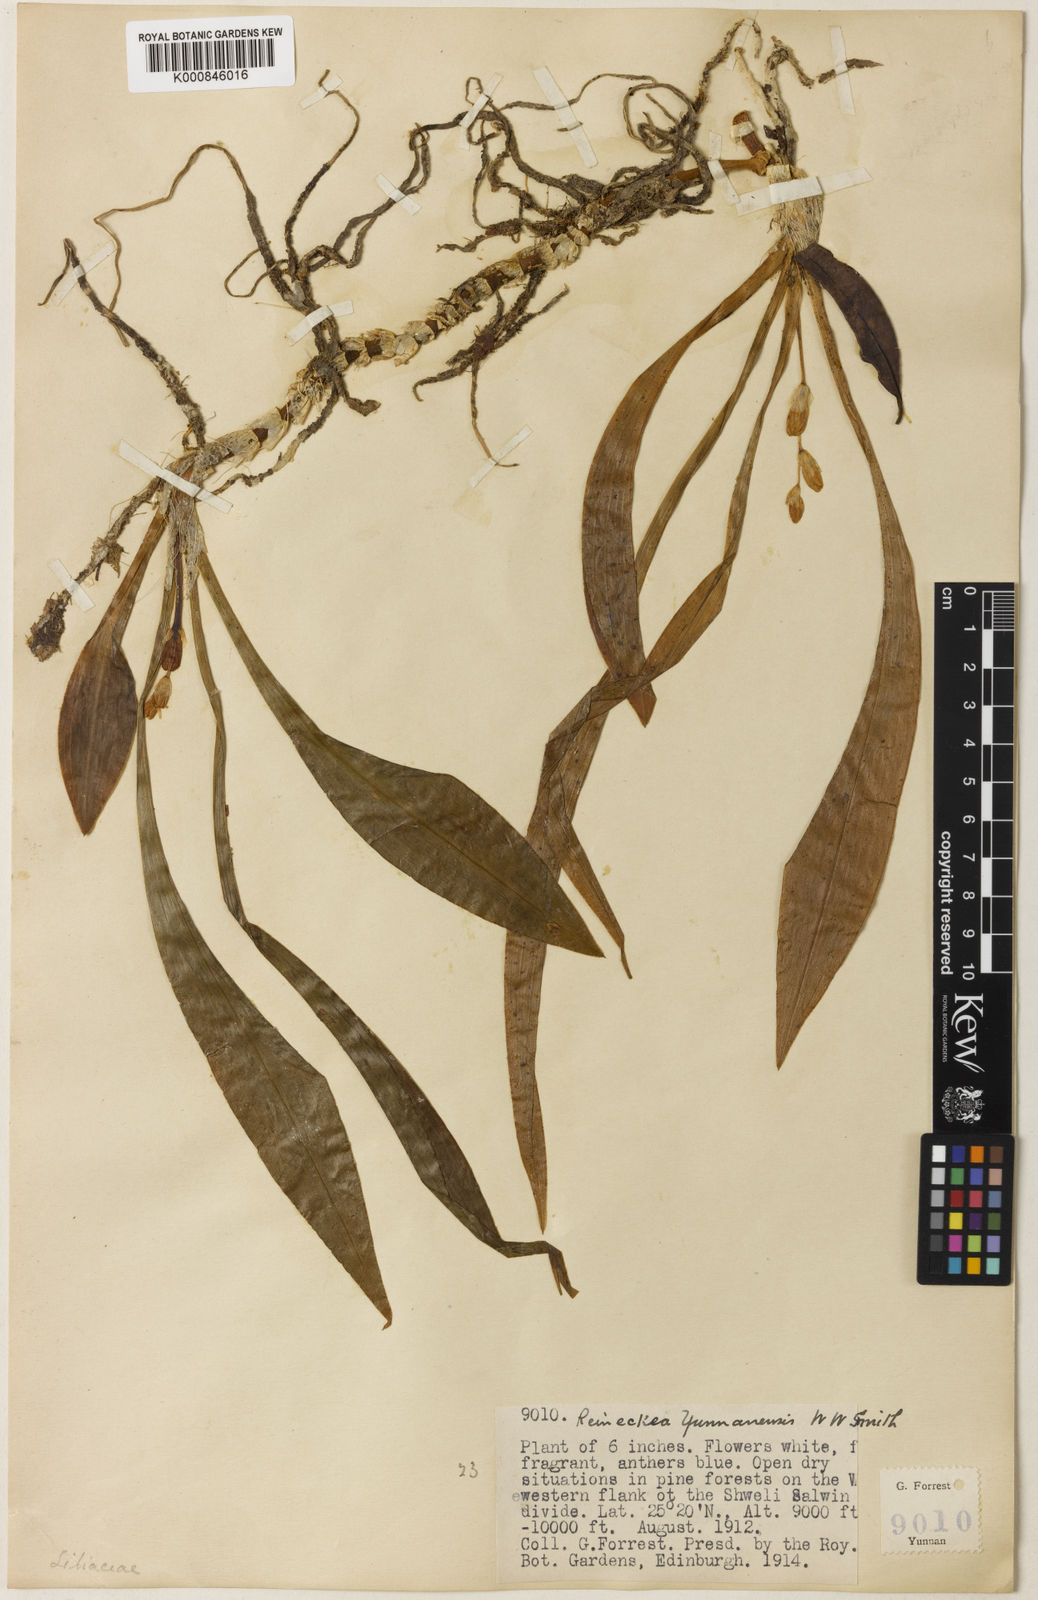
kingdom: Plantae
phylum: Tracheophyta
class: Liliopsida
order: Asparagales
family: Asparagaceae
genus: Reineckea
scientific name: Reineckea carnea
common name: Reineckea
